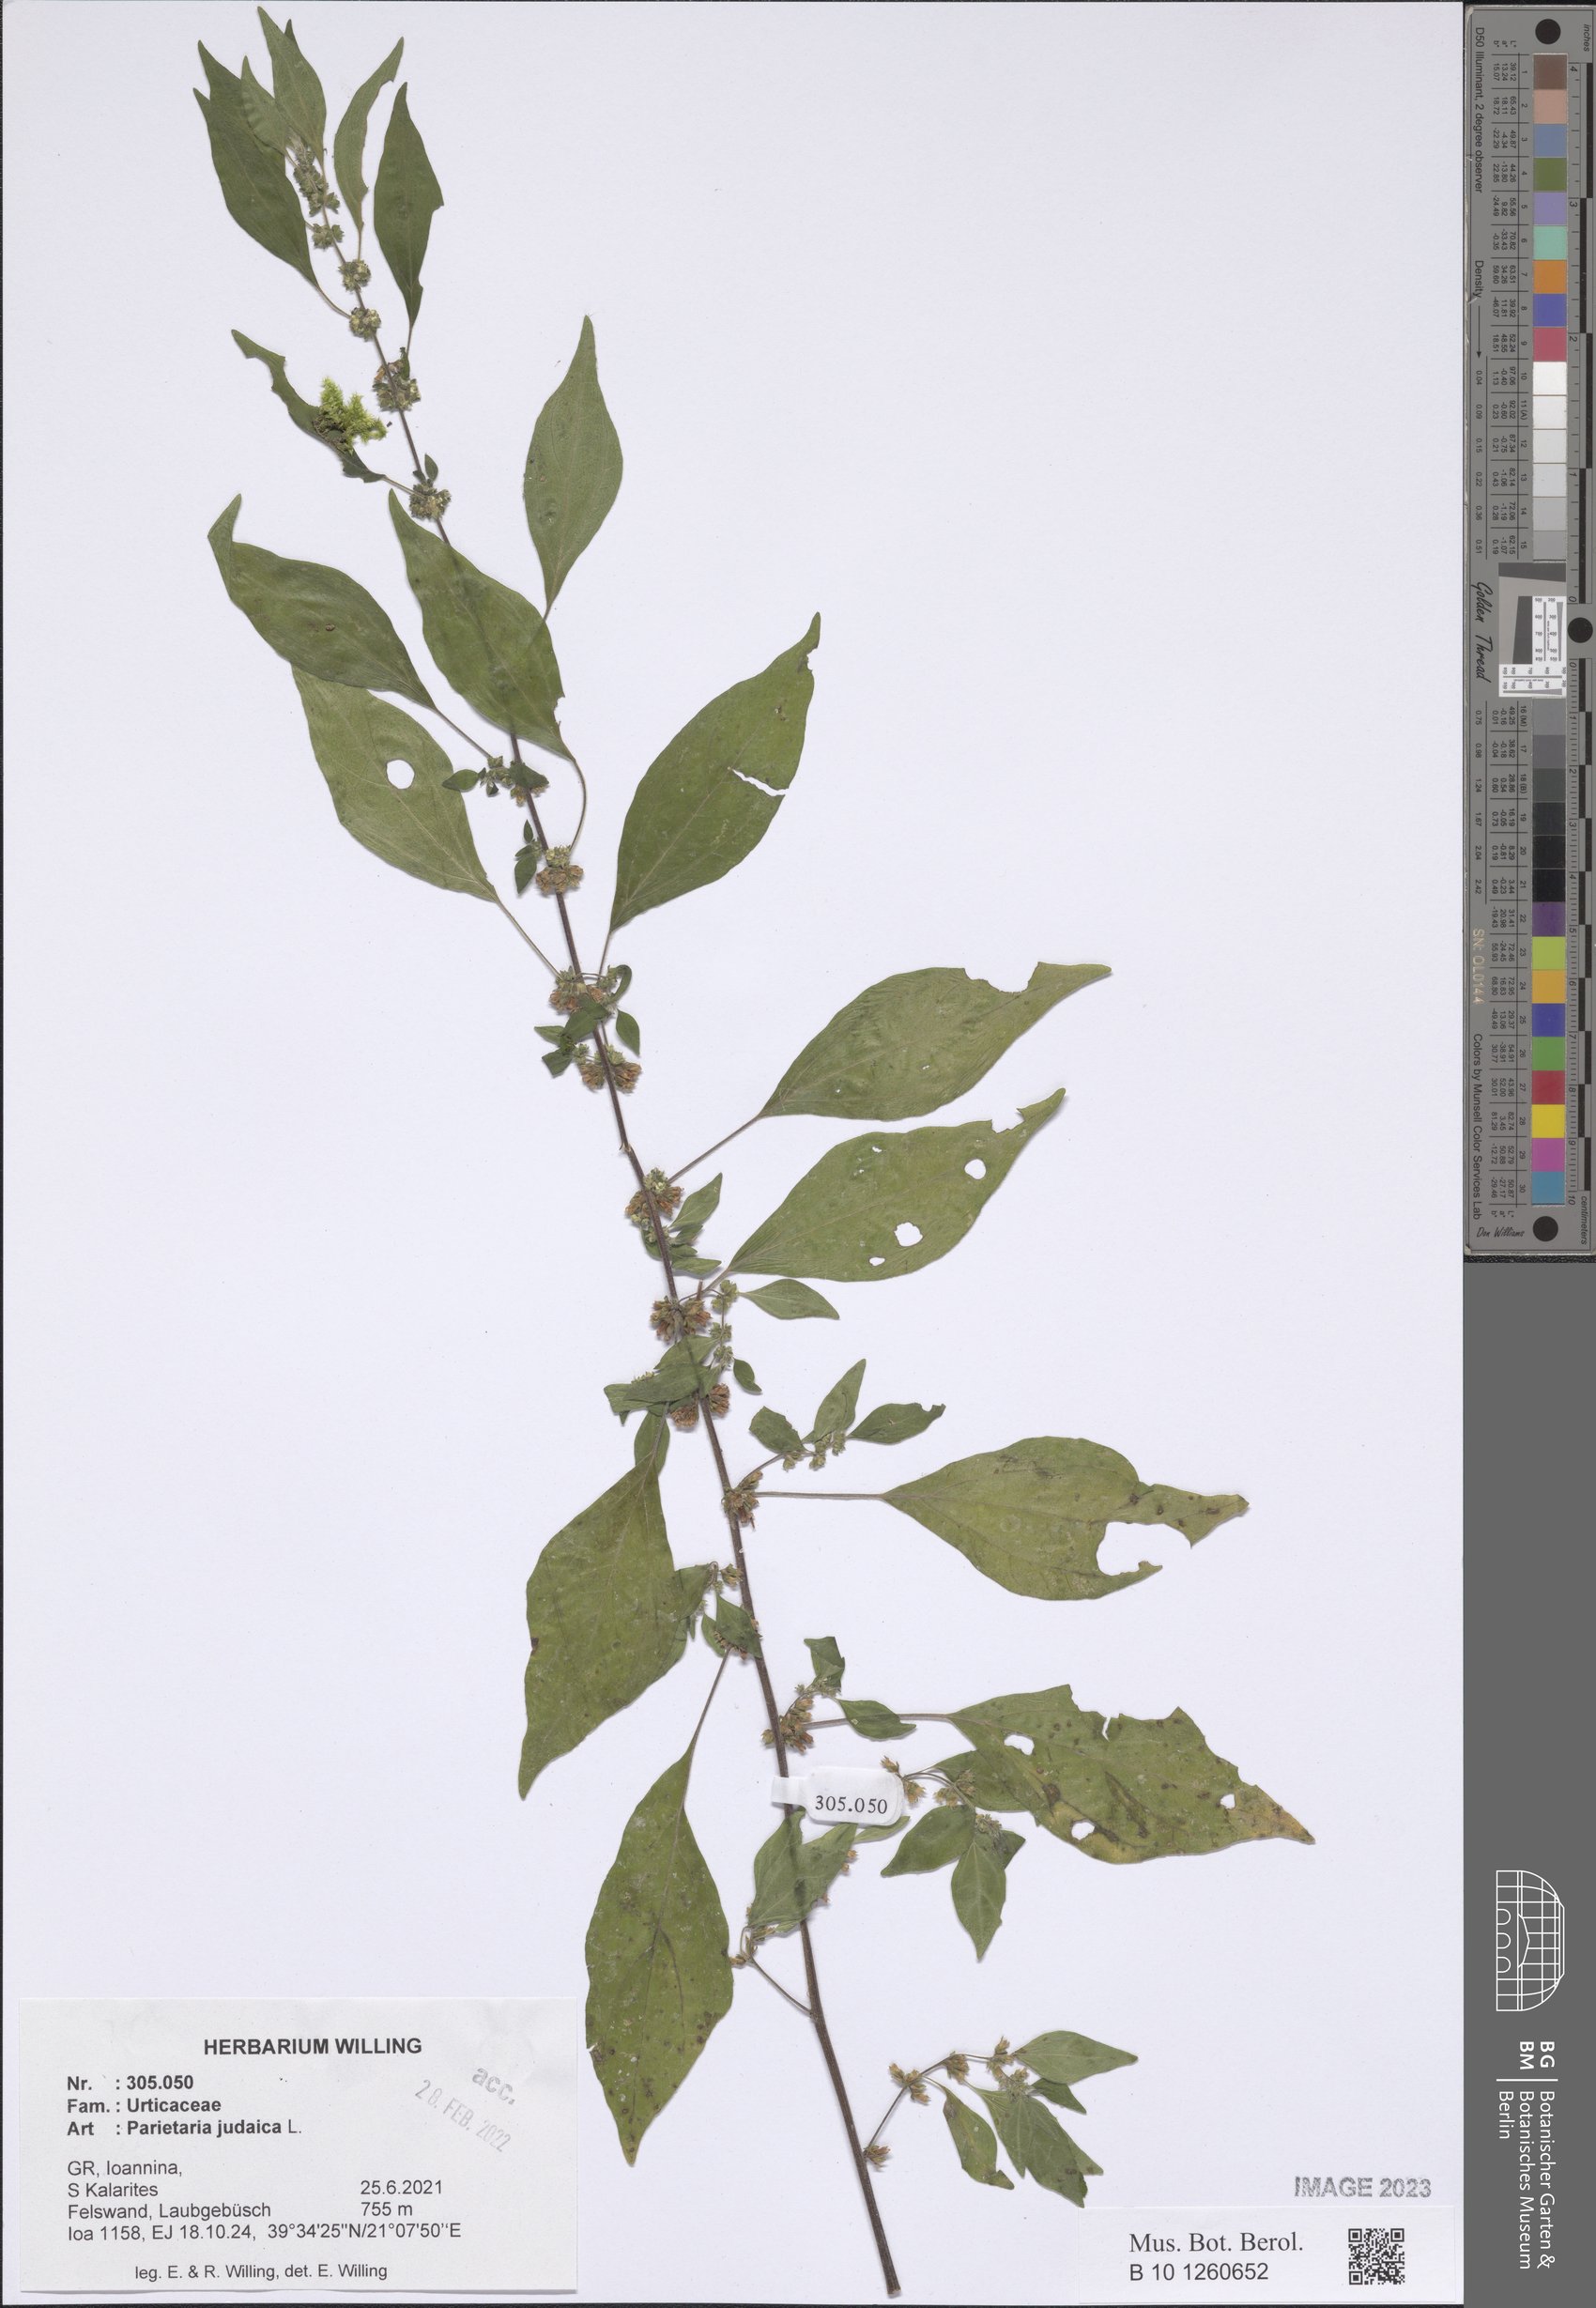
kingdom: Plantae
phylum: Tracheophyta
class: Magnoliopsida
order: Rosales
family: Urticaceae
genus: Parietaria
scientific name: Parietaria judaica
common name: Pellitory-of-the-wall
